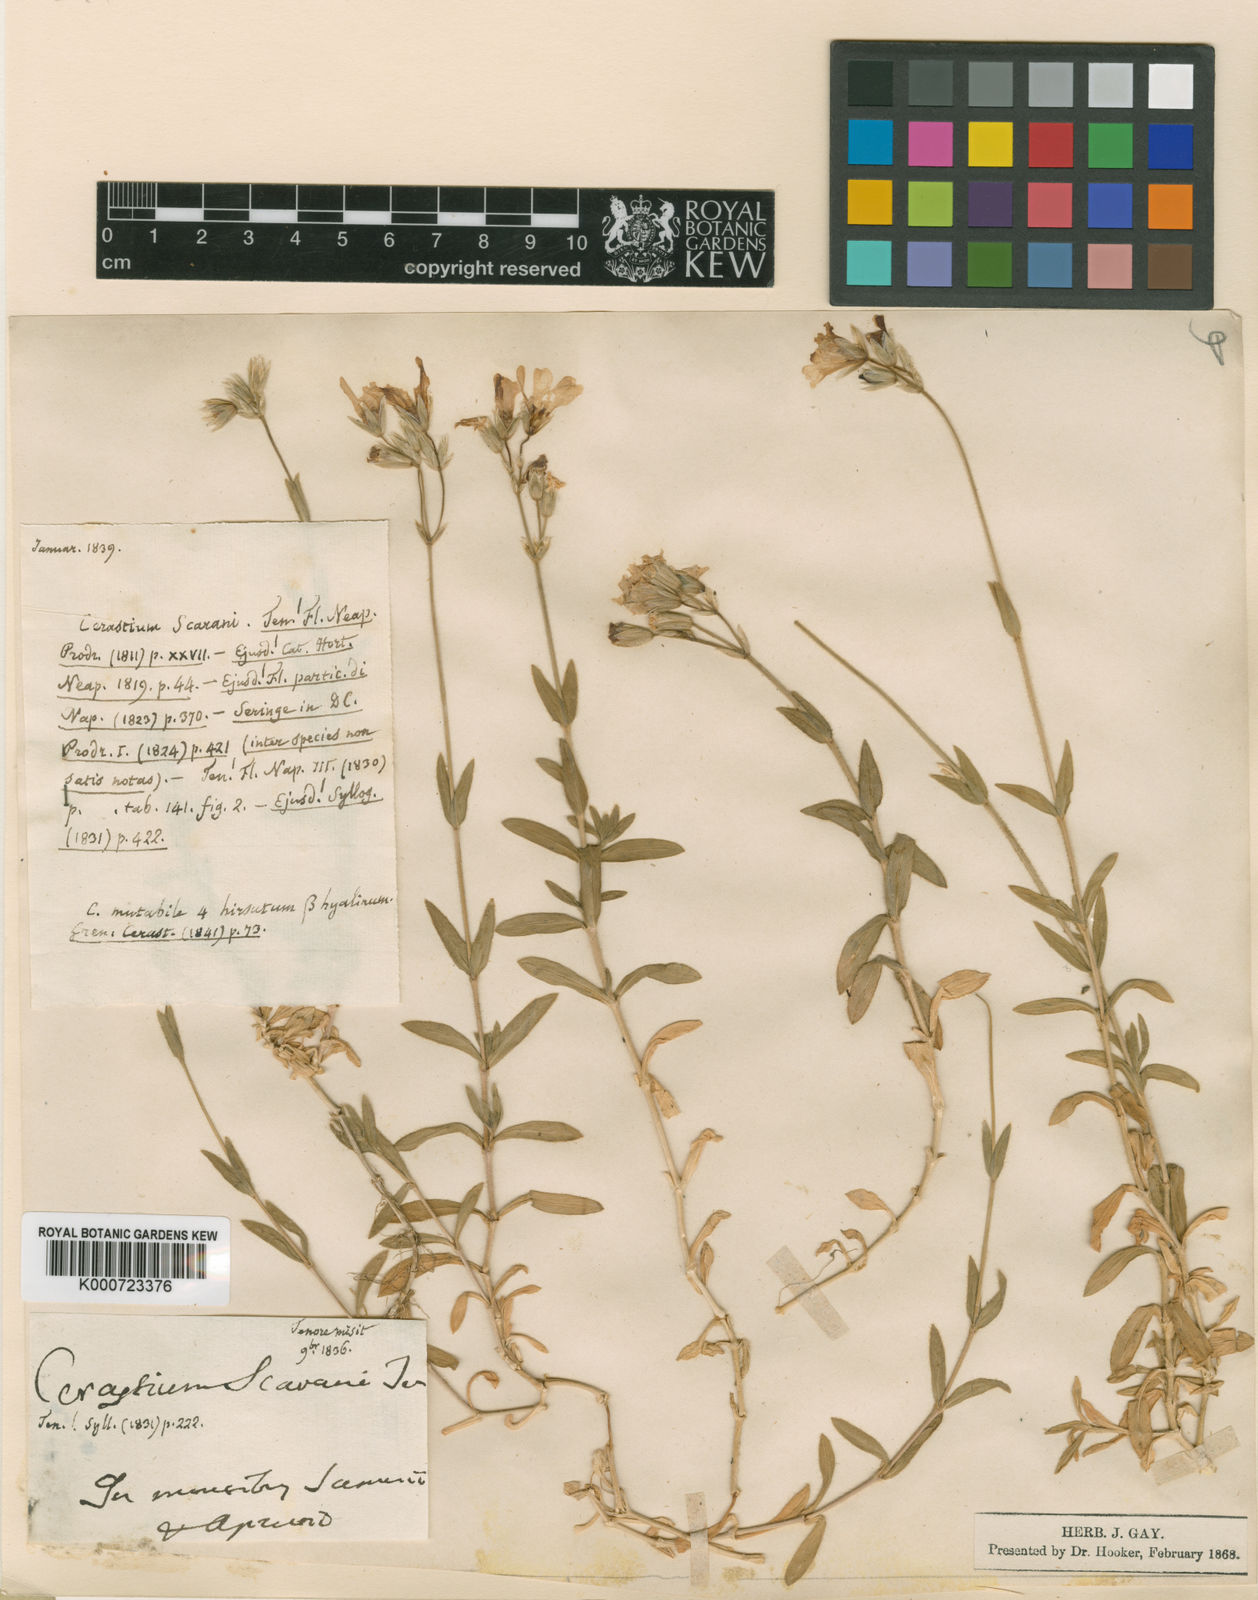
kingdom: Plantae
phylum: Tracheophyta
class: Magnoliopsida
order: Caryophyllales
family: Caryophyllaceae
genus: Cerastium
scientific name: Cerastium arvense
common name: Field mouse-ear
